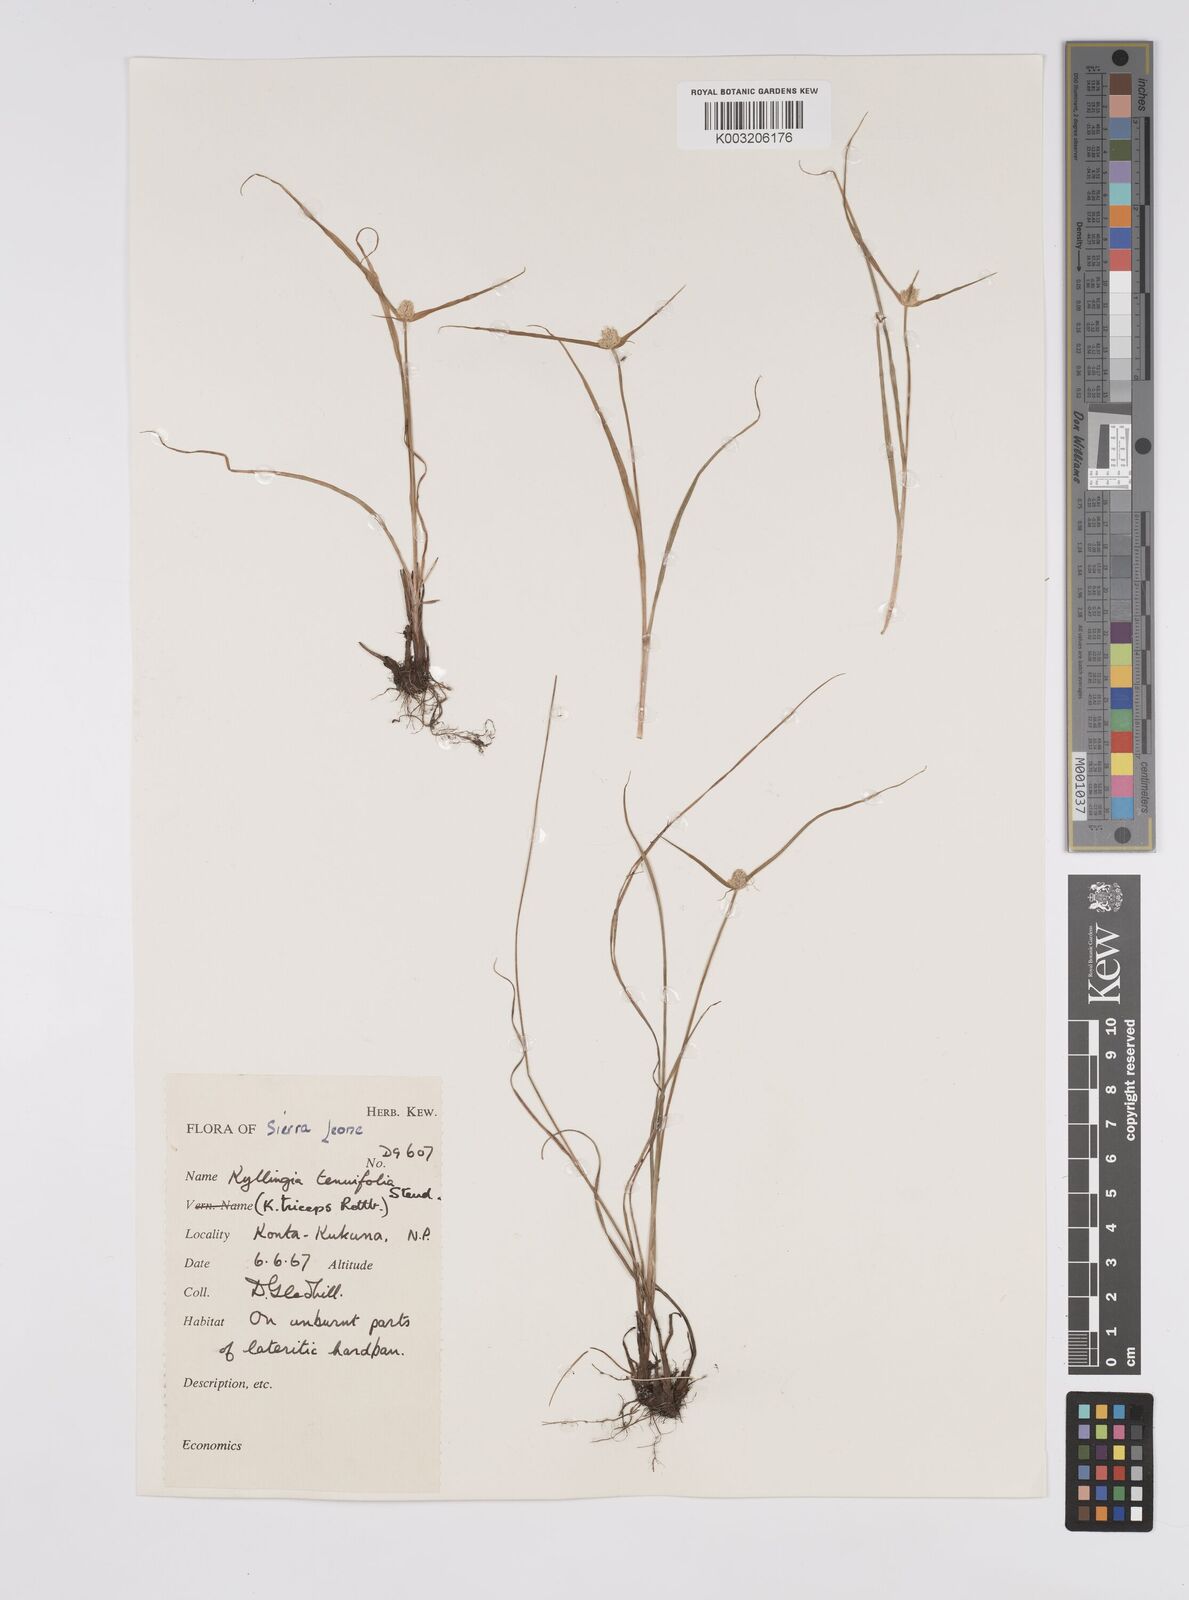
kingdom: Plantae
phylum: Tracheophyta
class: Liliopsida
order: Poales
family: Cyperaceae
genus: Cyperus
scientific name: Cyperus
